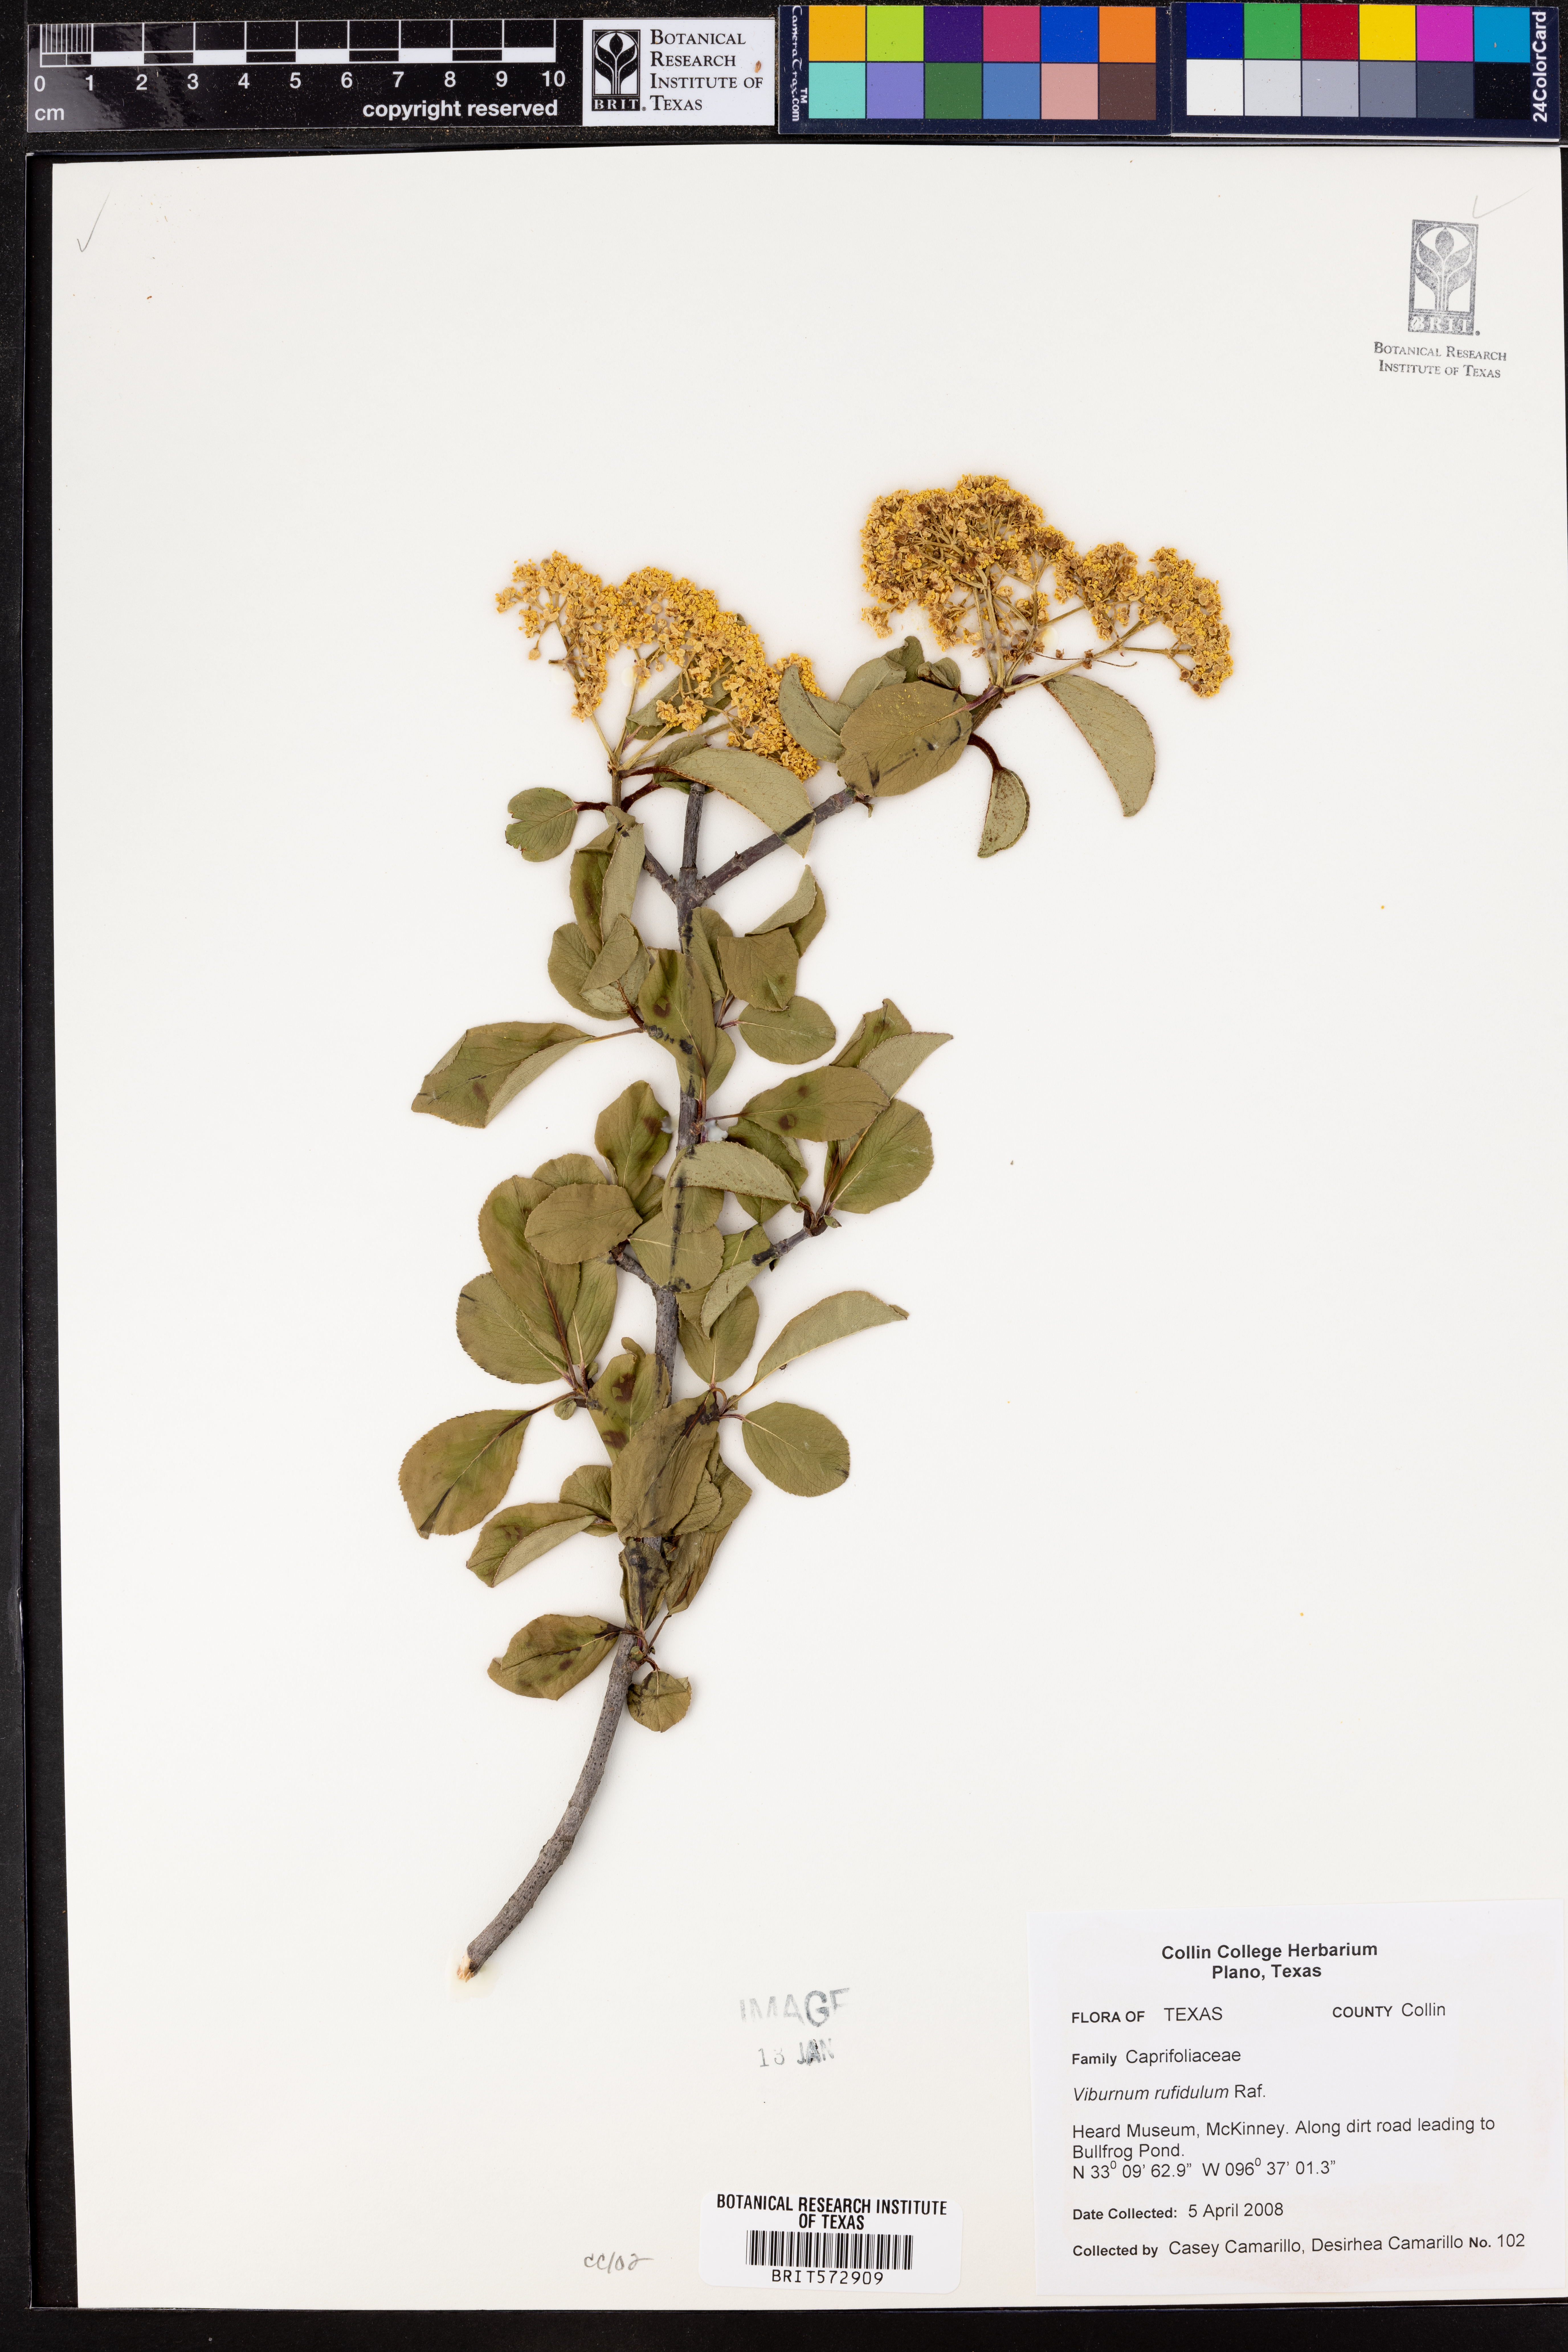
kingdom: Plantae
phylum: Tracheophyta
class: Magnoliopsida
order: Dipsacales
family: Viburnaceae
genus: Viburnum
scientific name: Viburnum rufidulum
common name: Blue haw
